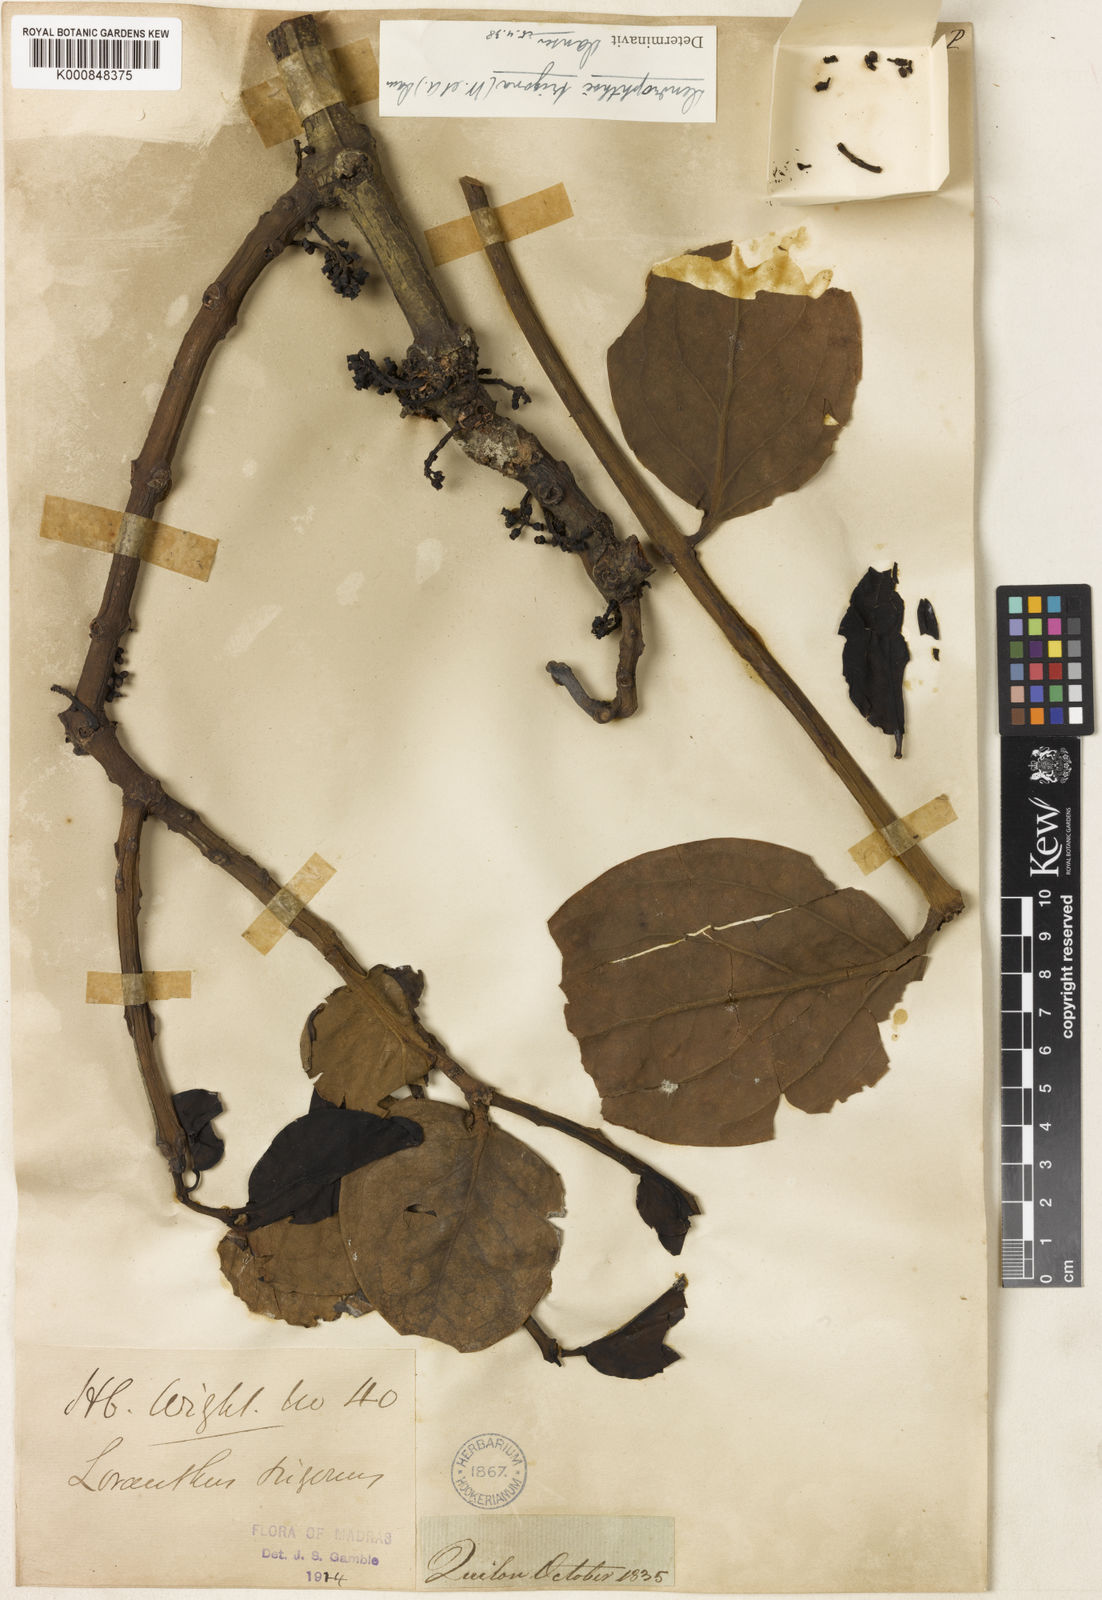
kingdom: Plantae
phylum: Tracheophyta
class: Magnoliopsida
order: Santalales
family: Loranthaceae
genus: Macrosolen
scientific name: Macrosolen trigonus
